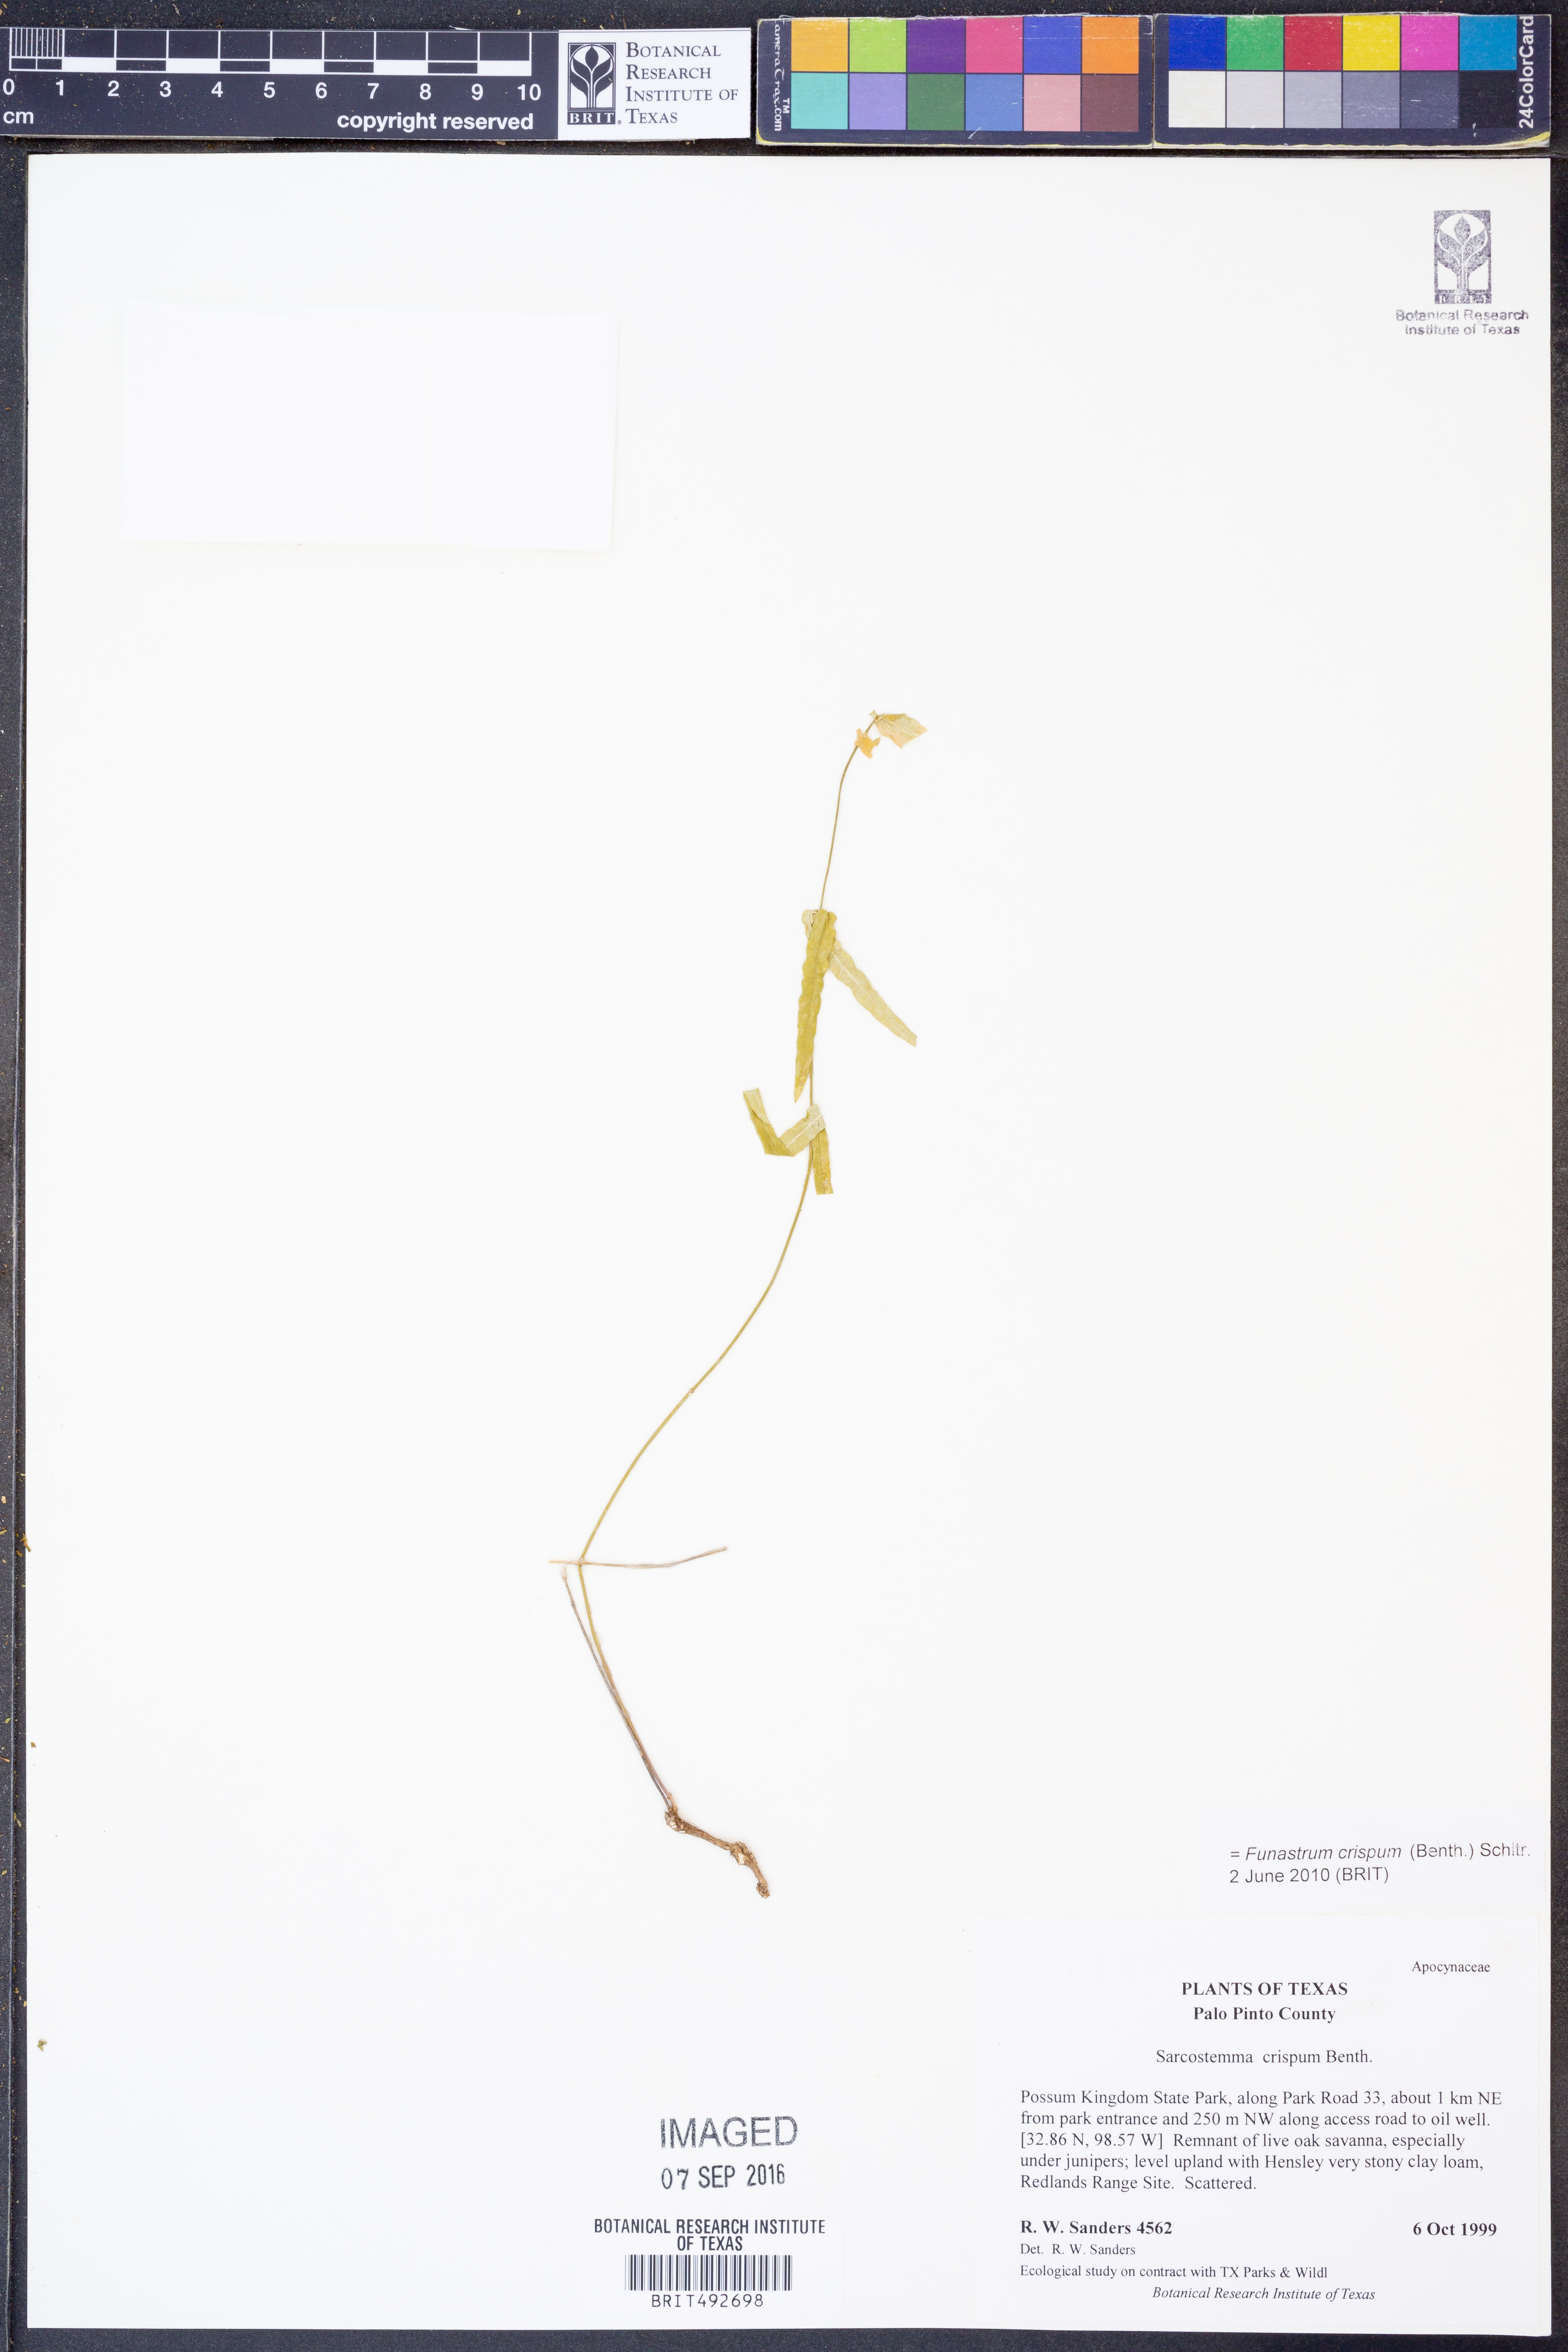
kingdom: Plantae
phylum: Tracheophyta
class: Magnoliopsida
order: Gentianales
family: Apocynaceae
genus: Funastrum
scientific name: Funastrum crispum
